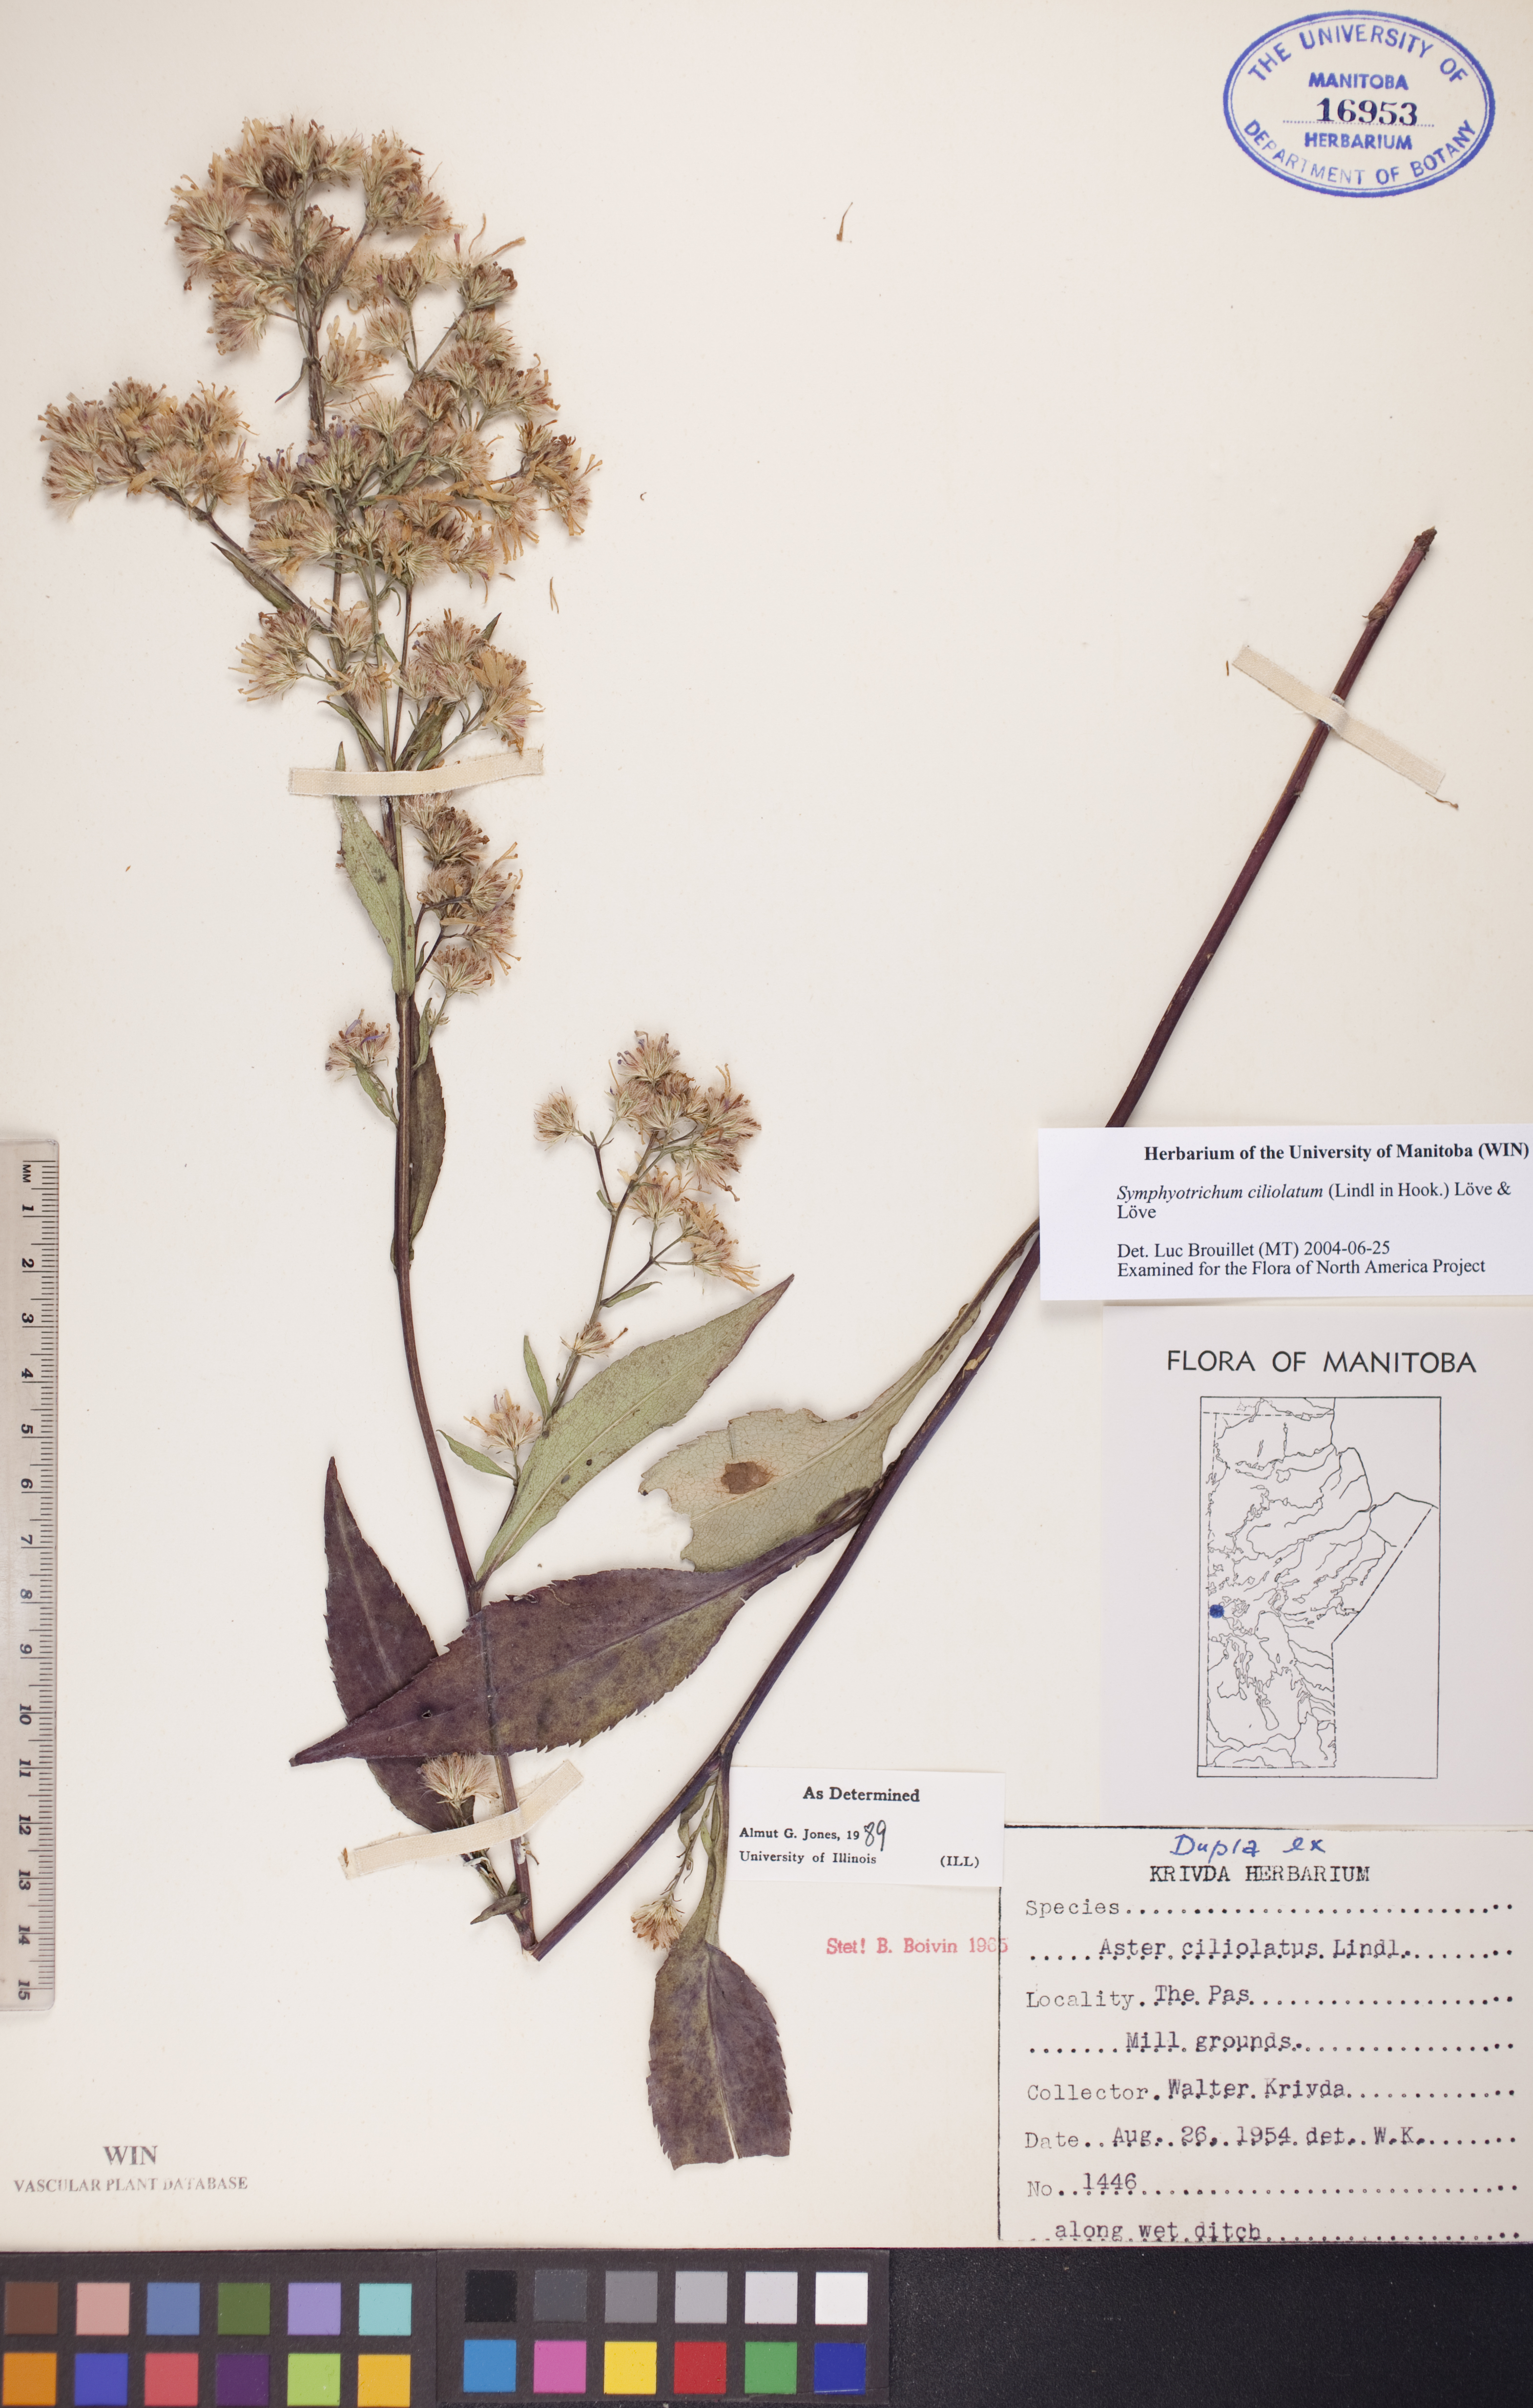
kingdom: Plantae
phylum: Tracheophyta
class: Magnoliopsida
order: Asterales
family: Asteraceae
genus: Symphyotrichum
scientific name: Symphyotrichum ciliolatum
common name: Fringed blue aster
